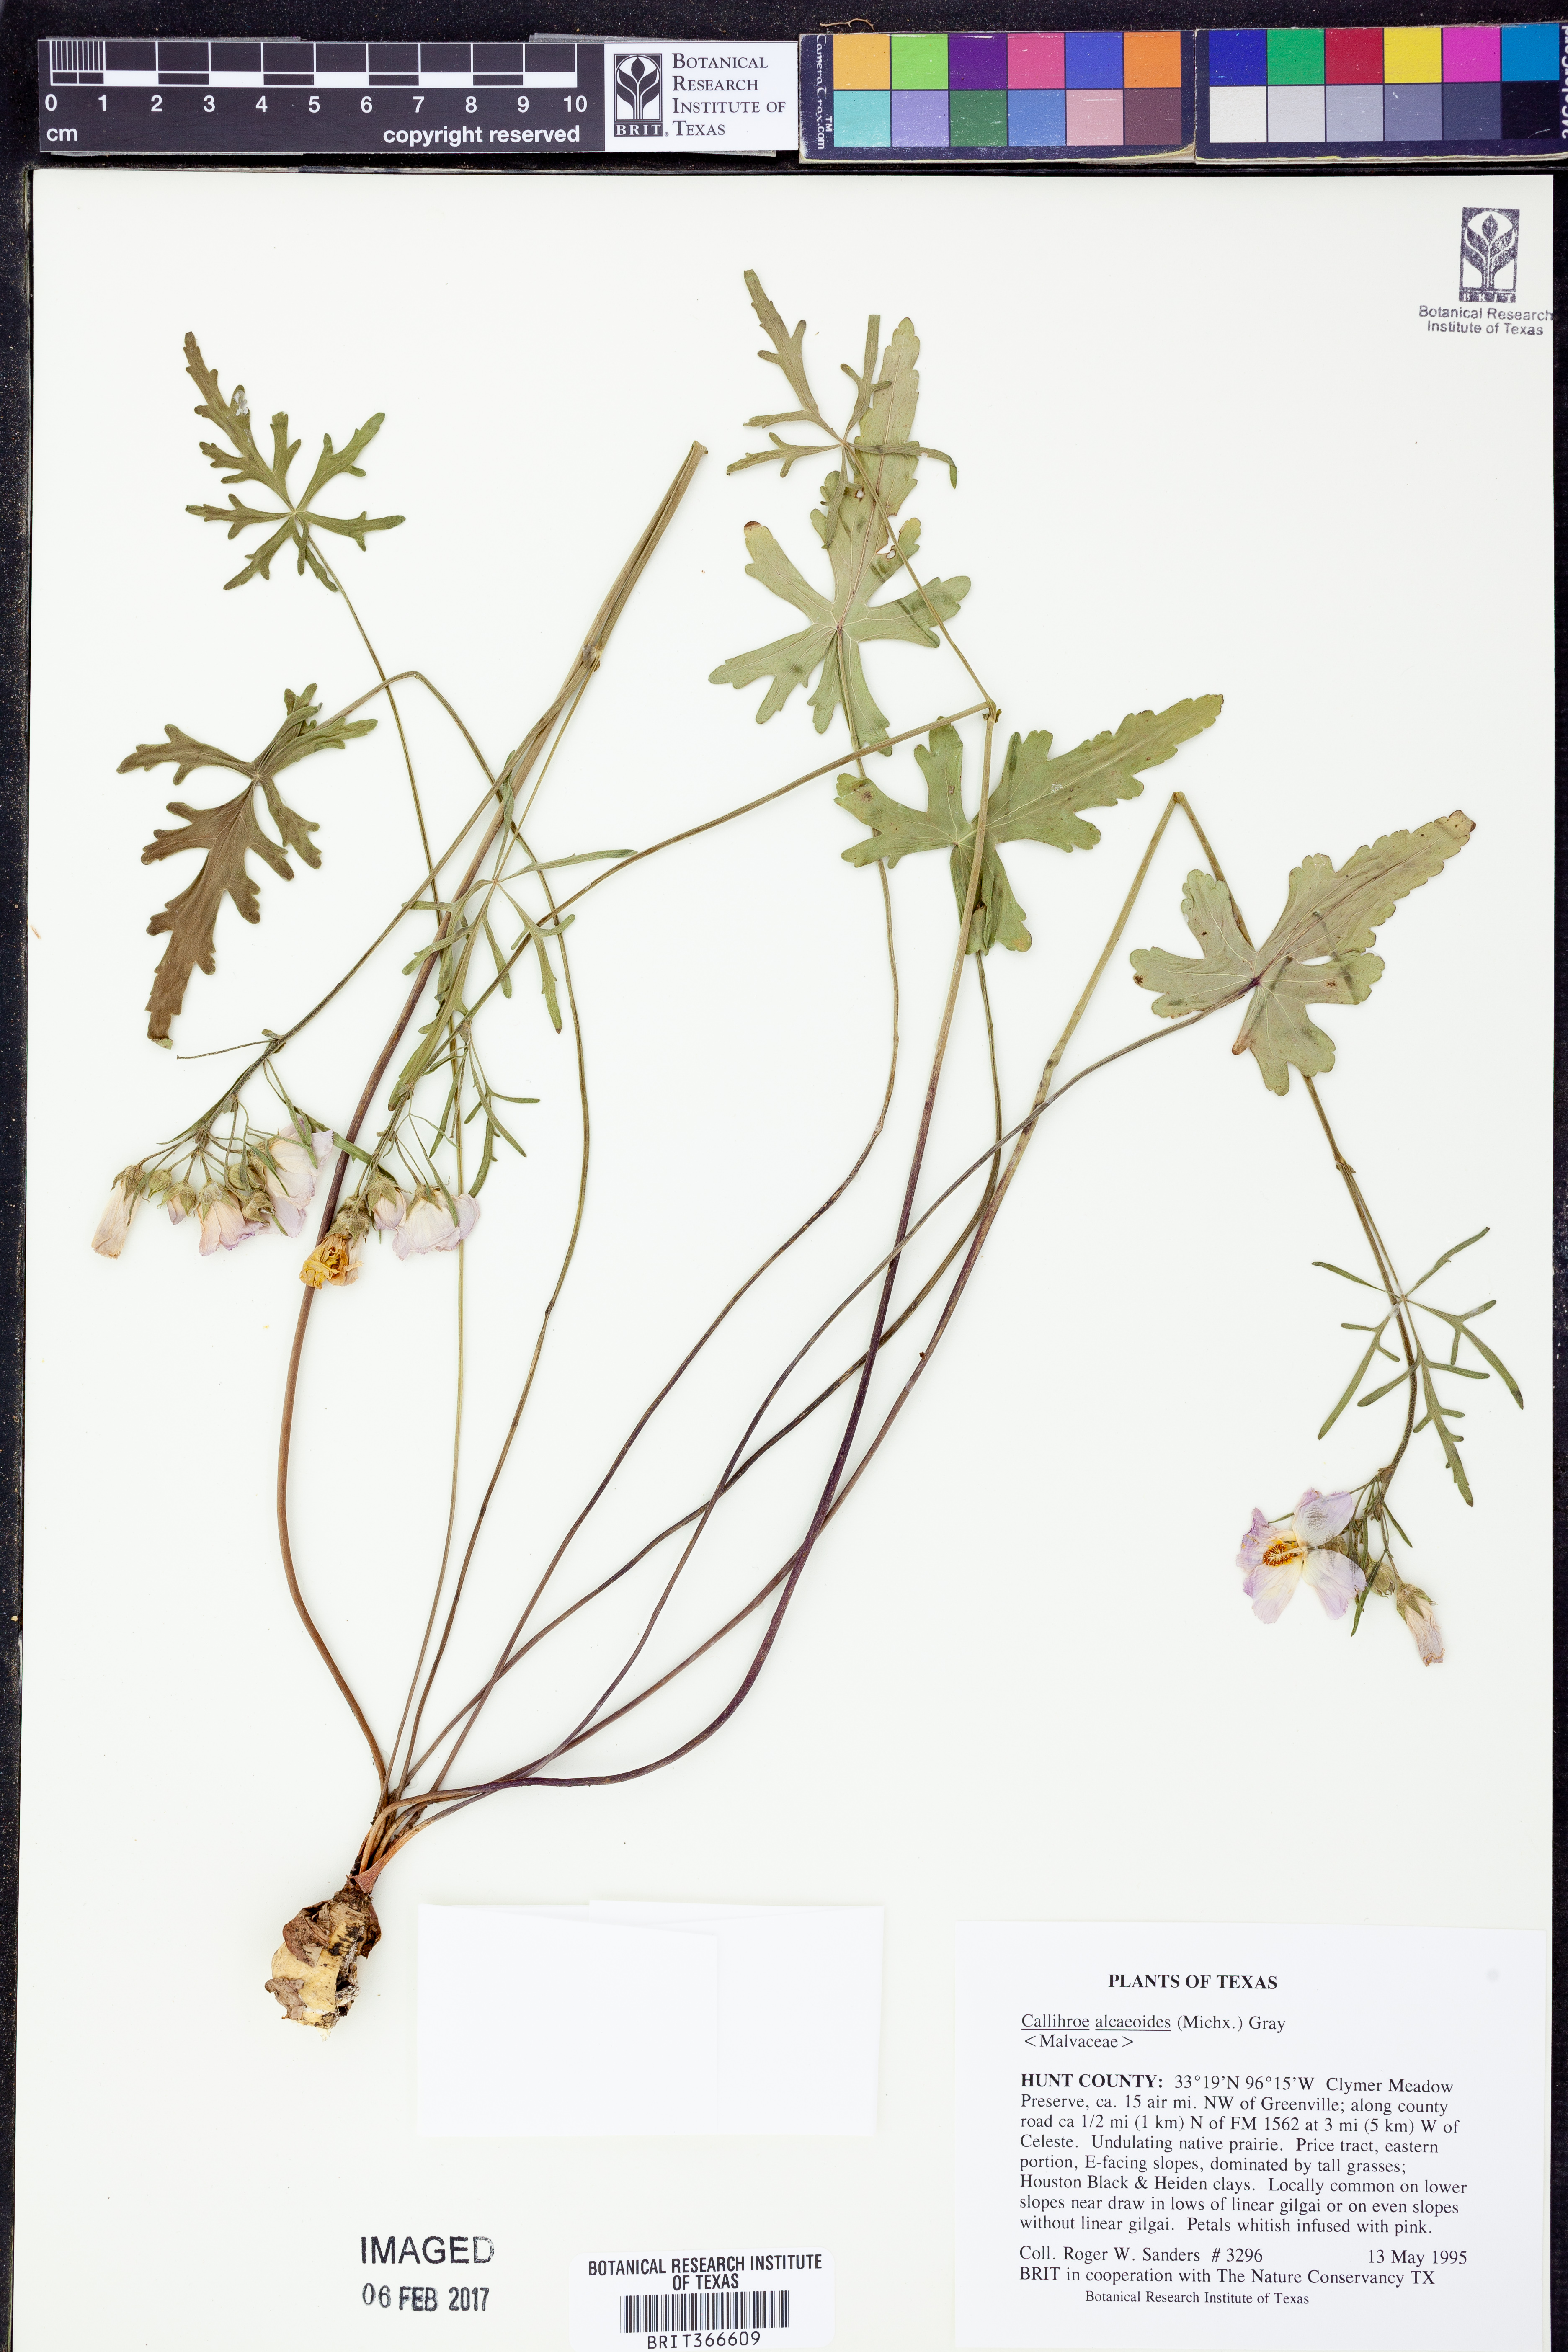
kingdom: Plantae
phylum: Tracheophyta
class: Magnoliopsida
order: Malvales
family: Malvaceae
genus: Callirhoe
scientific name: Callirhoe alcaeoides
